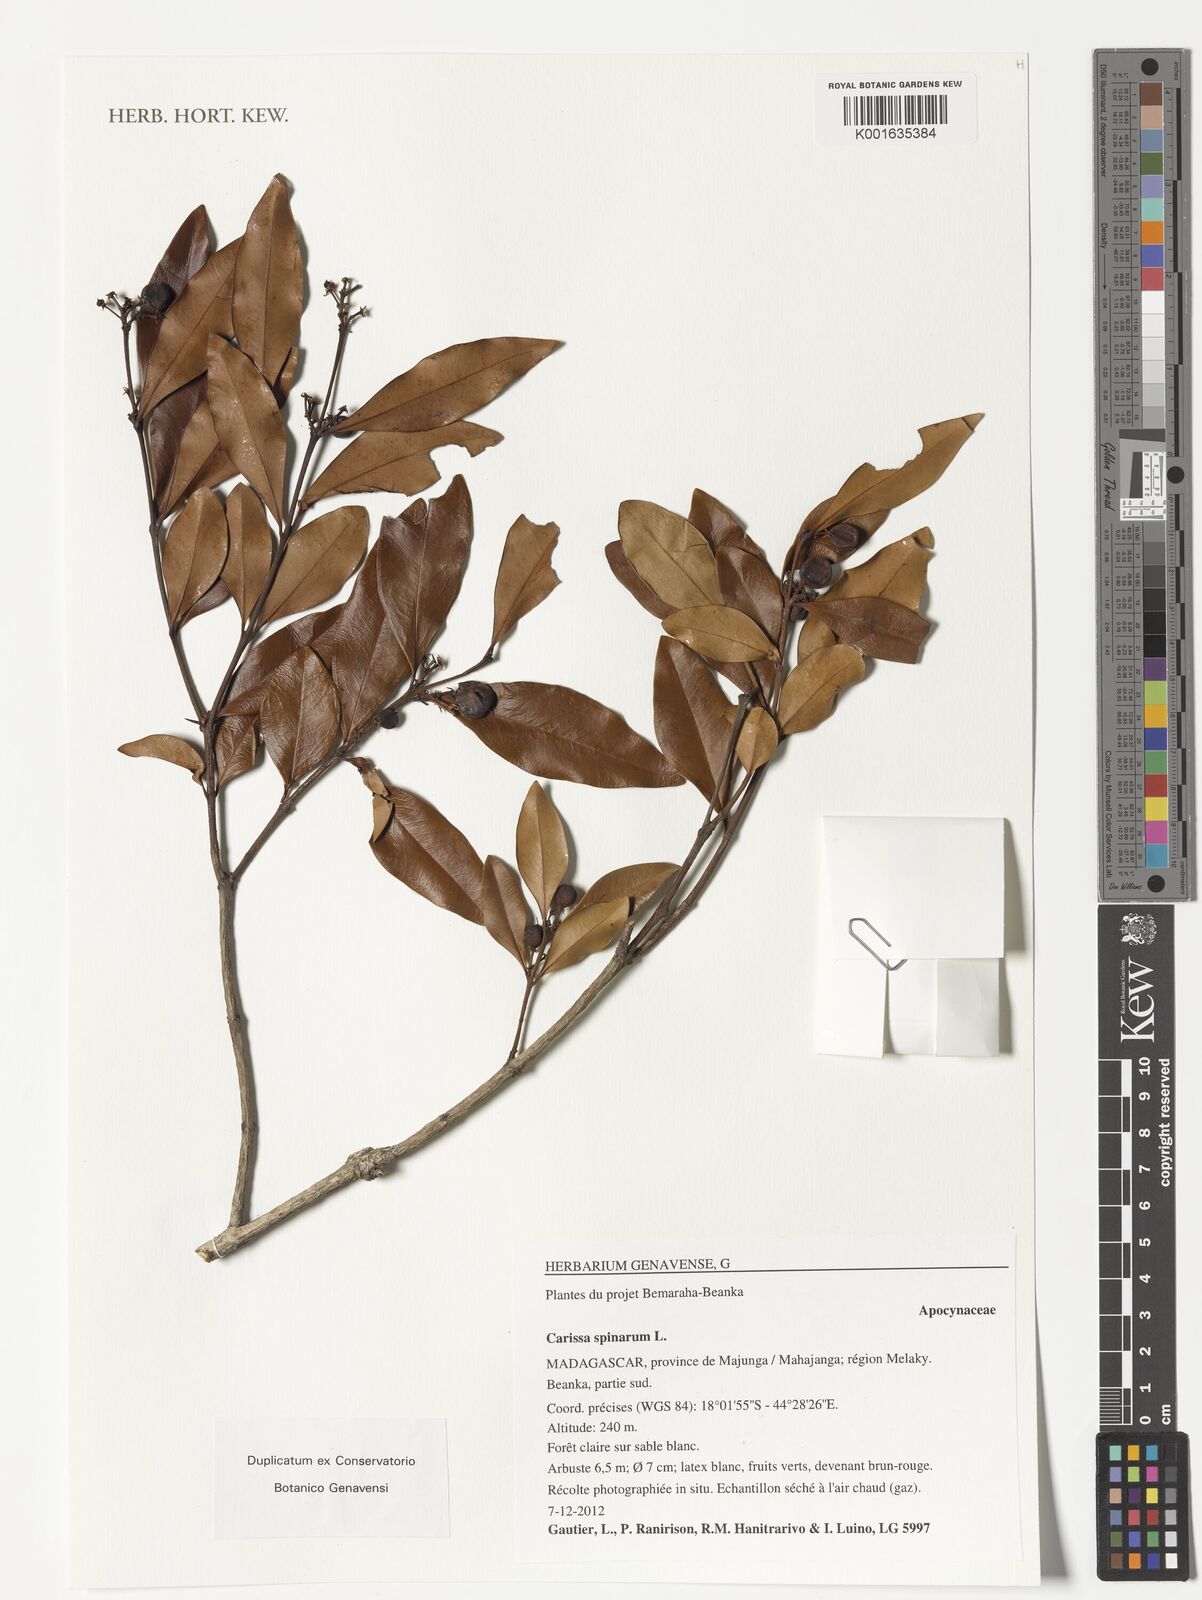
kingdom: Plantae
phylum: Tracheophyta
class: Magnoliopsida
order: Gentianales
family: Apocynaceae
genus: Carissa
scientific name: Carissa spinarum
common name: Egyptian carissa
